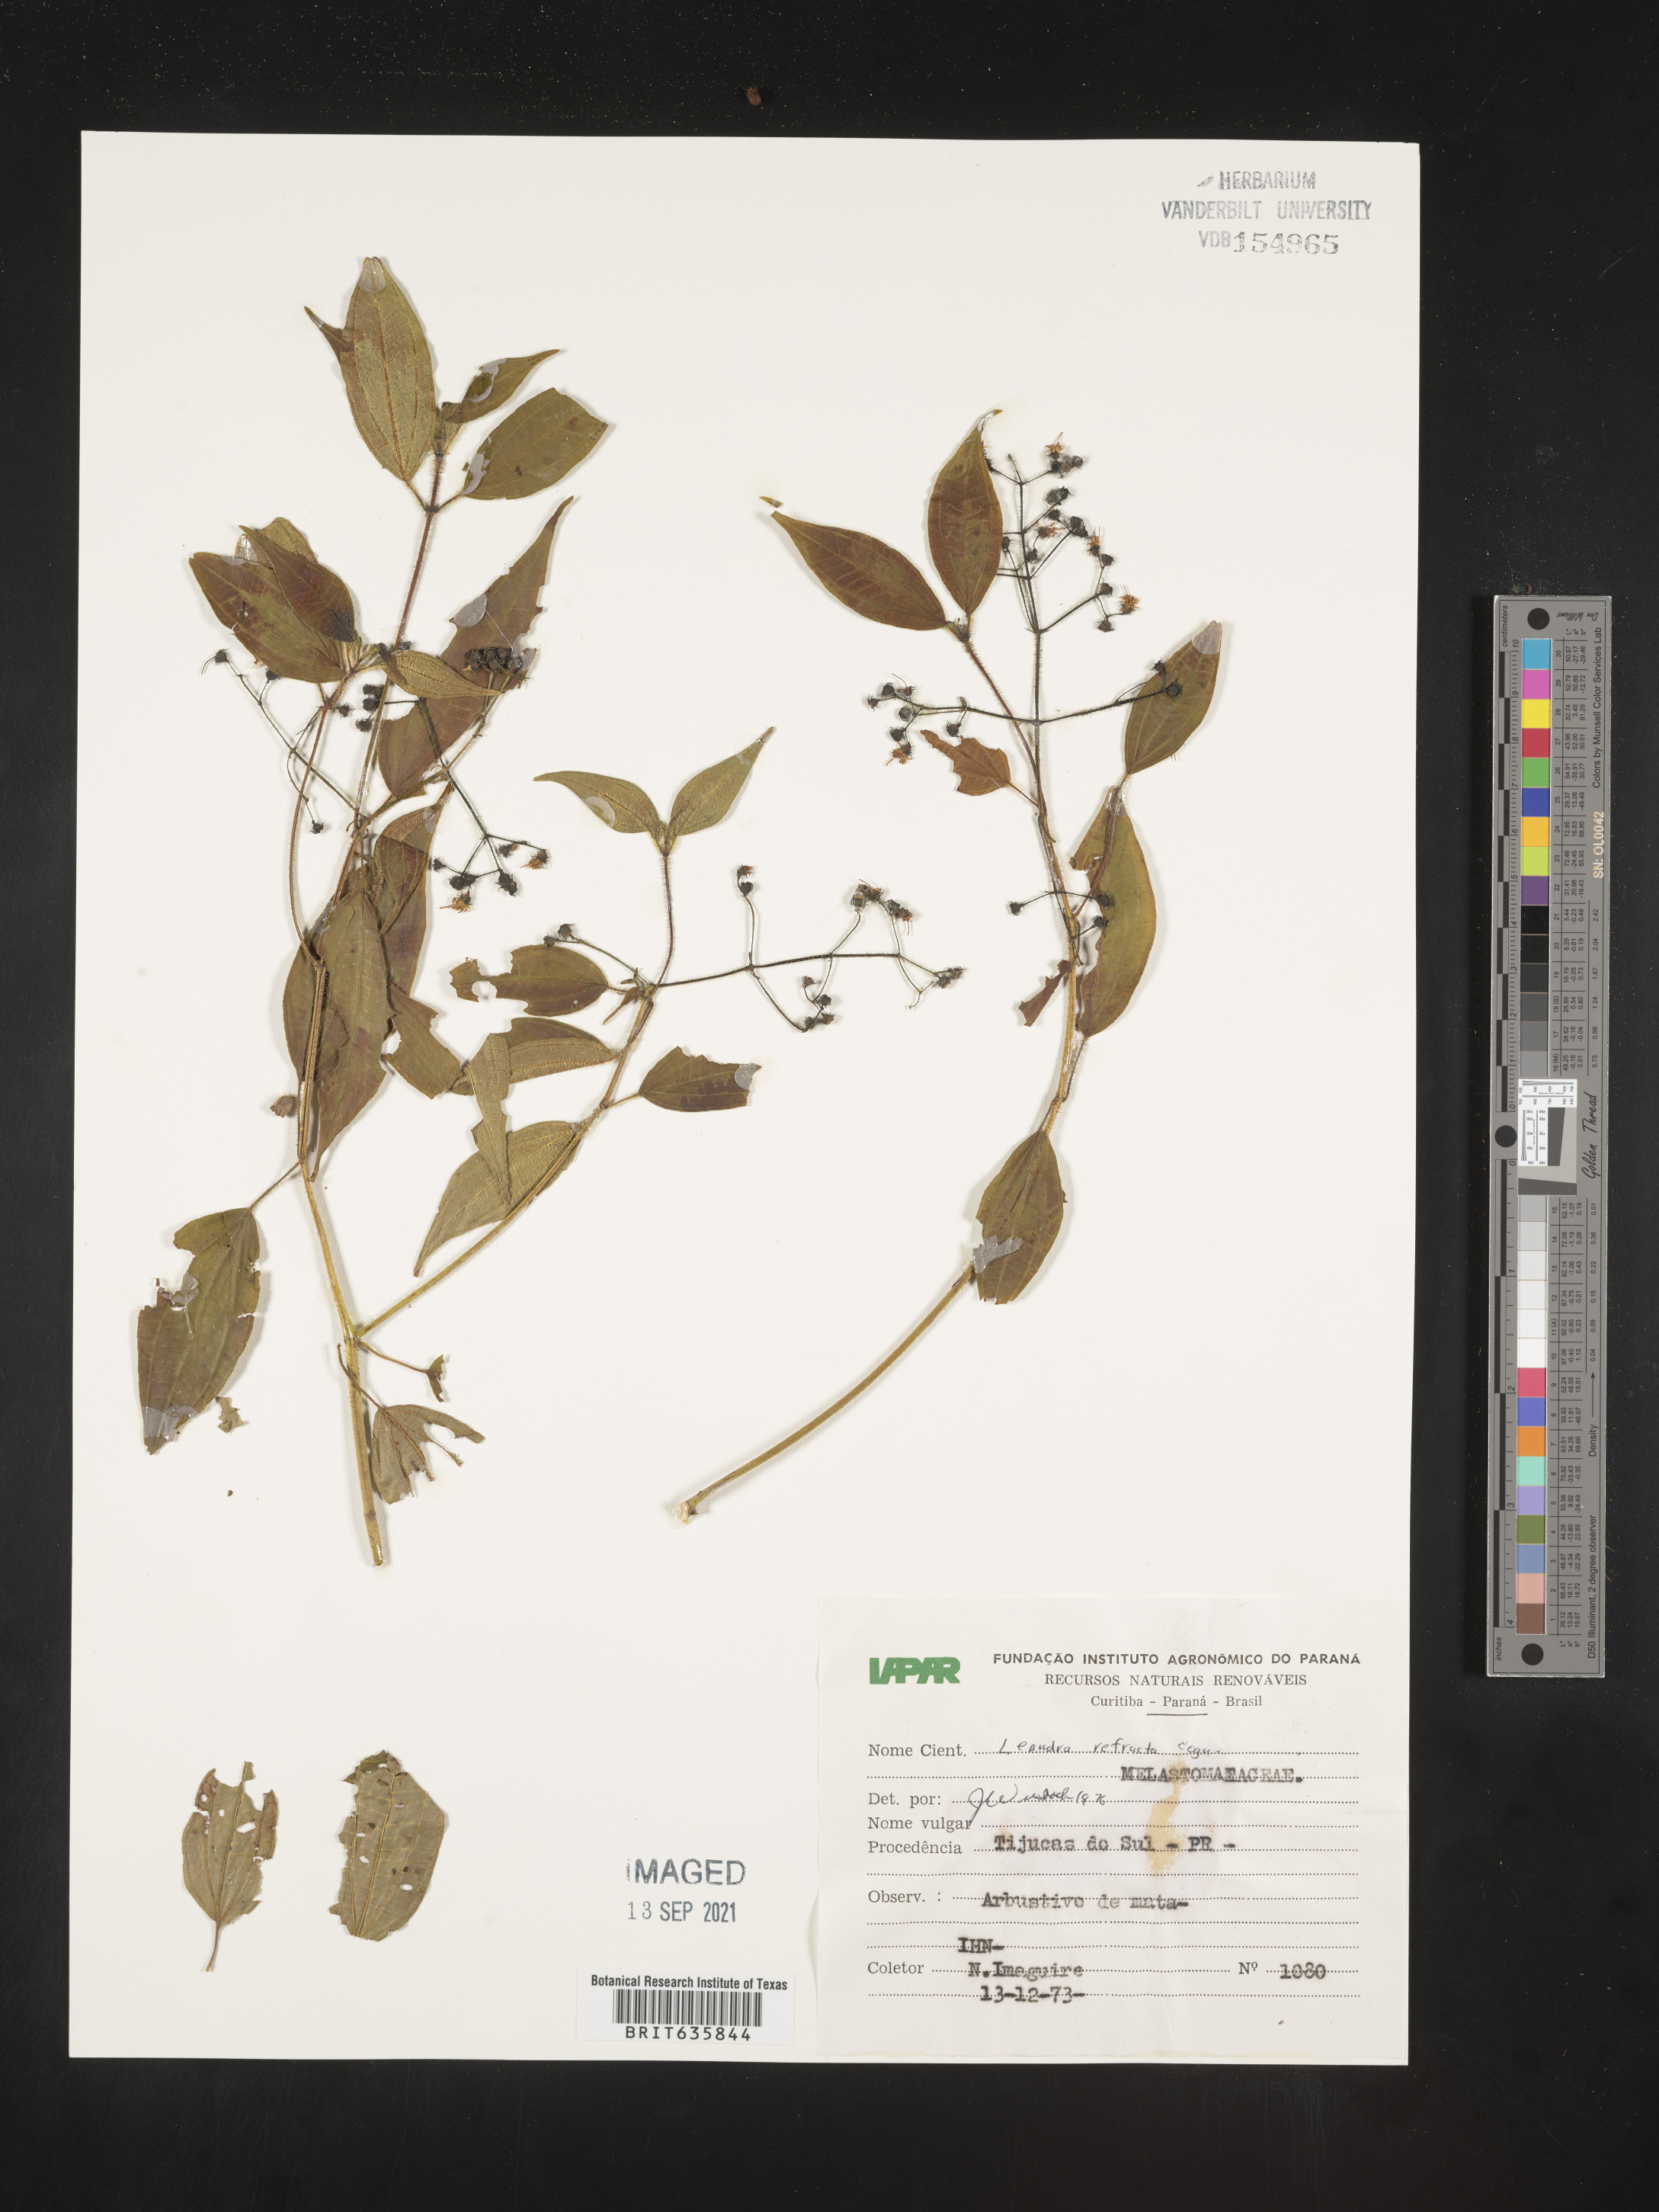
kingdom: Plantae
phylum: Tracheophyta
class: Magnoliopsida
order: Myrtales
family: Melastomataceae
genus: Miconia
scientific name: Miconia
